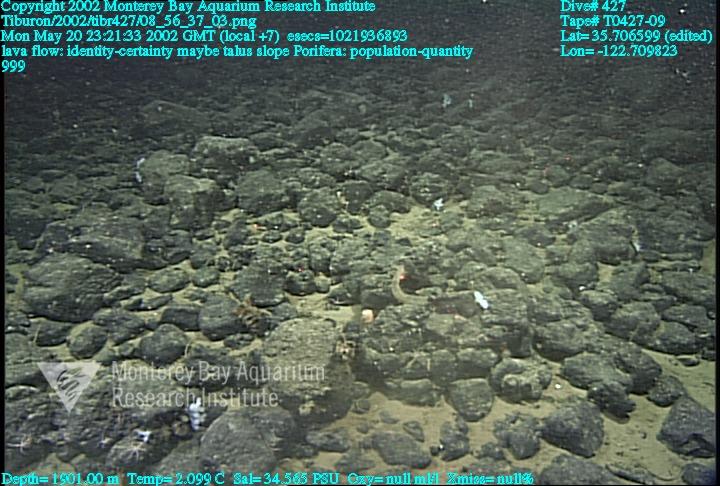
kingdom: Animalia
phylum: Porifera
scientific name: Porifera
